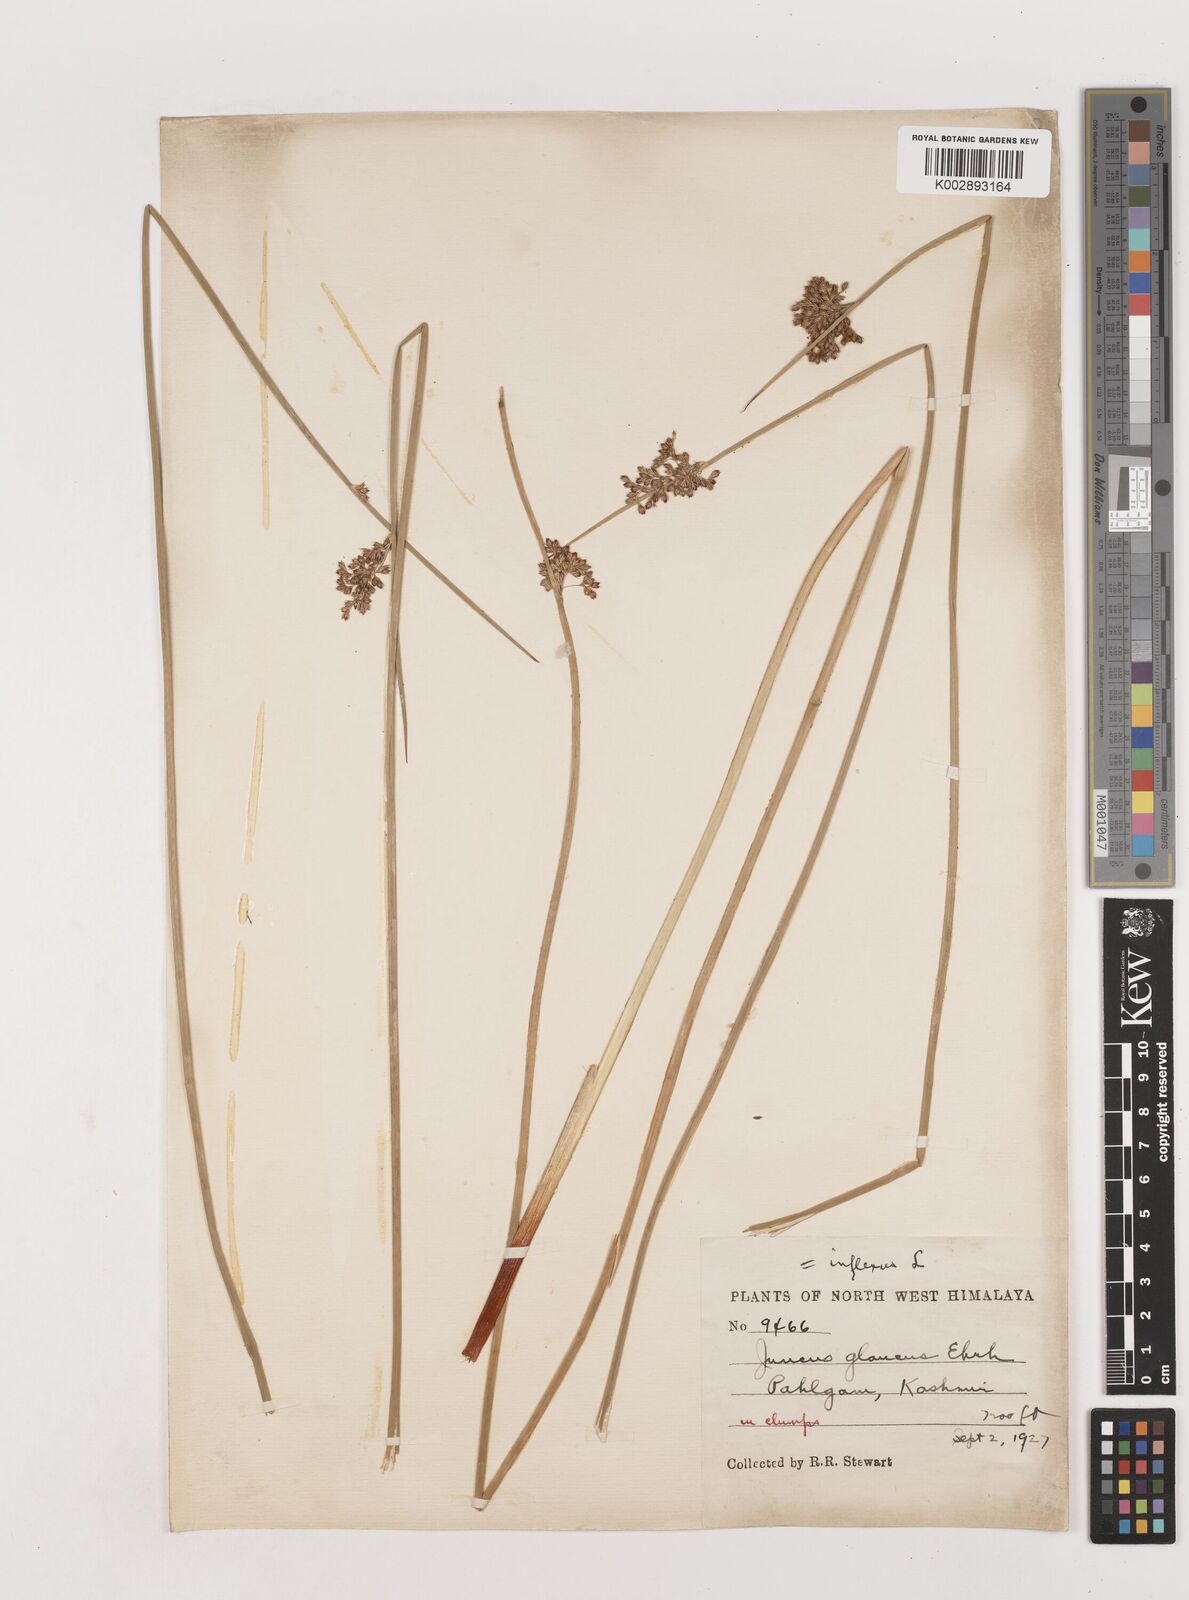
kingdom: Plantae
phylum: Tracheophyta
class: Liliopsida
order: Poales
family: Juncaceae
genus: Juncus
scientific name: Juncus inflexus
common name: Hard rush
